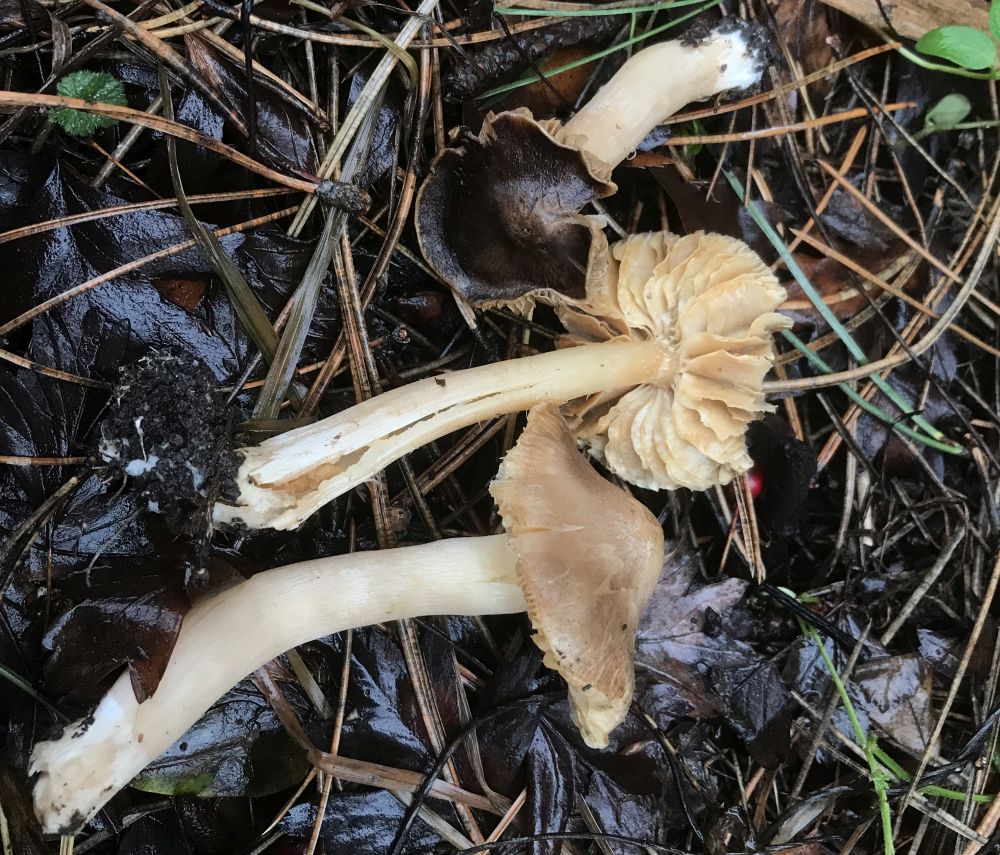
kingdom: Fungi
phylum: Basidiomycota
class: Agaricomycetes
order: Agaricales
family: Tricholomataceae
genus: Tricholoma
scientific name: Tricholoma
